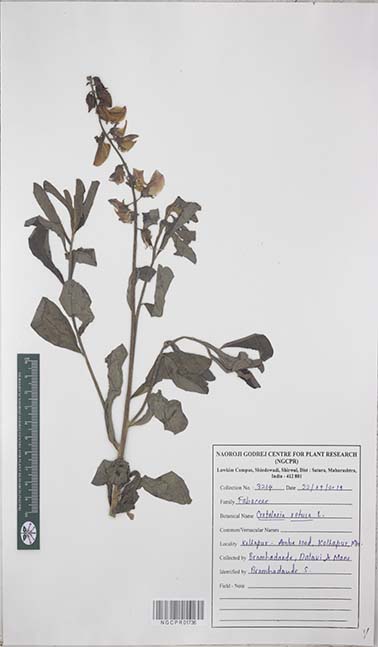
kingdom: Plantae
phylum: Tracheophyta
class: Magnoliopsida
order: Fabales
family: Fabaceae
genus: Crotalaria
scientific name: Crotalaria retusa
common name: Rattleweed
